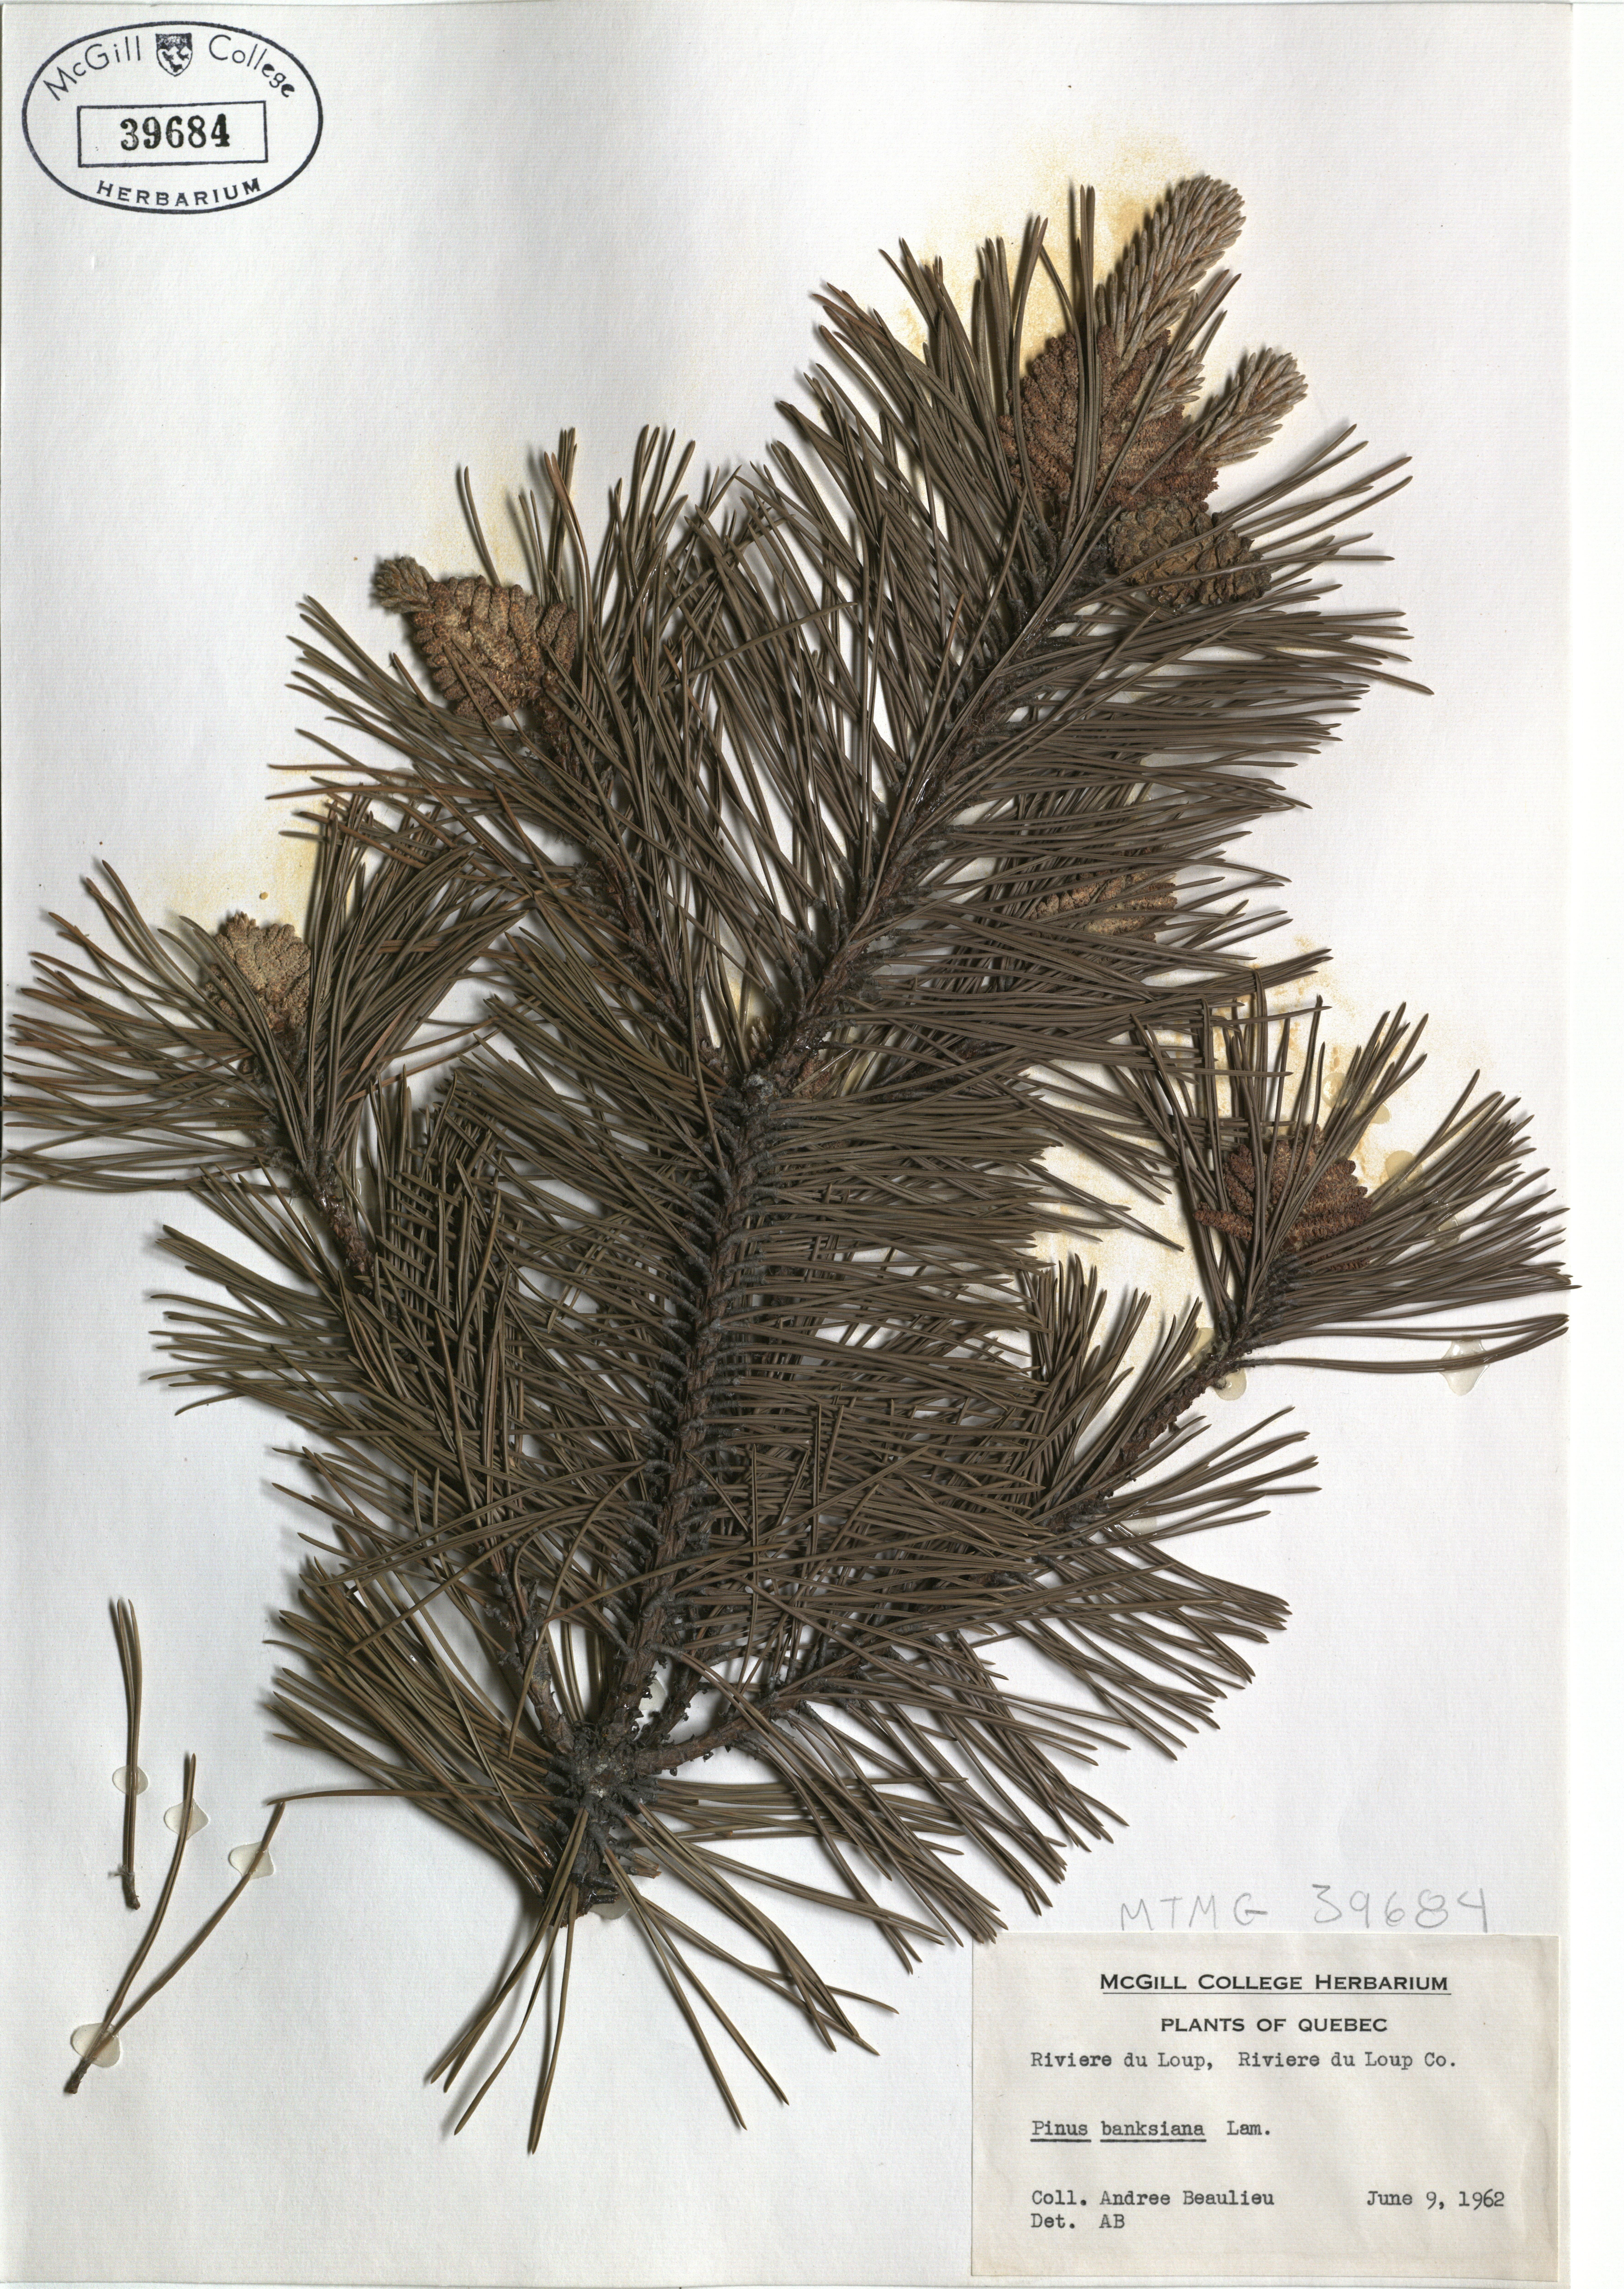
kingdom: Plantae
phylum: Tracheophyta
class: Pinopsida
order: Pinales
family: Pinaceae
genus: Pinus
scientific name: Pinus banksiana
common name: Jack pine
